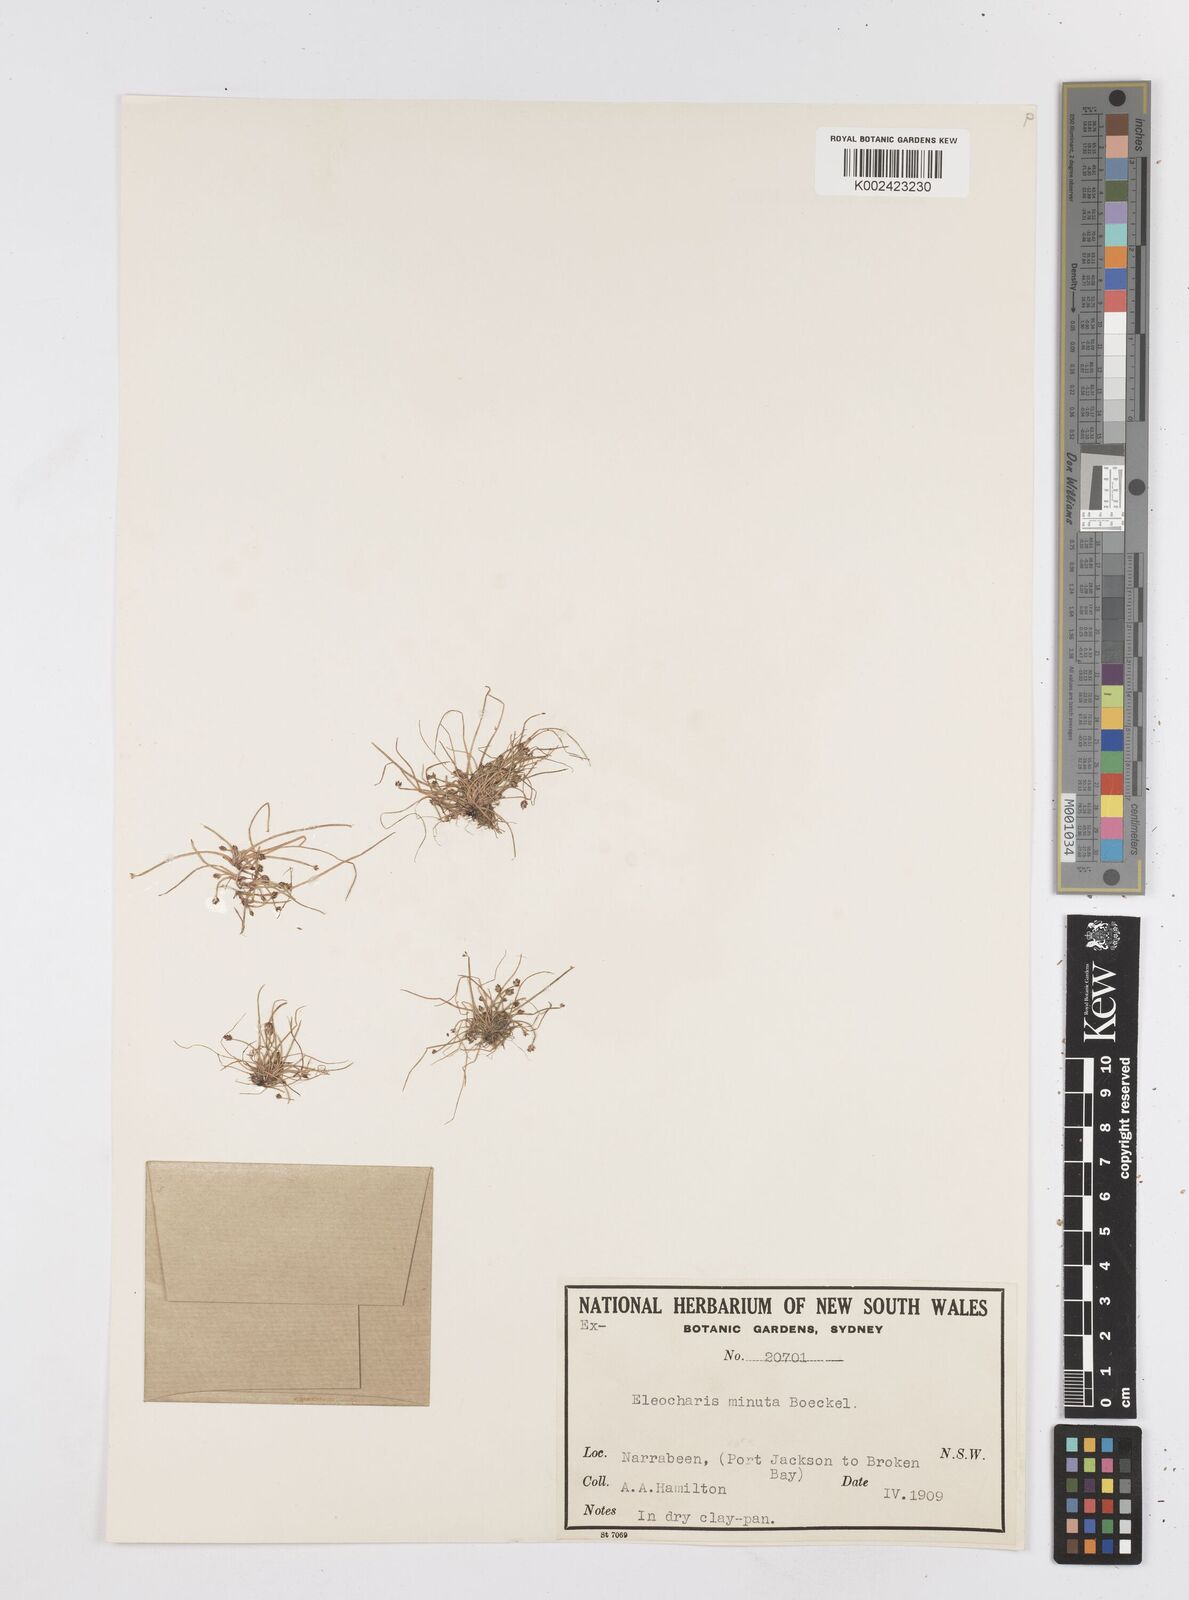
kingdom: Plantae
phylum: Tracheophyta
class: Liliopsida
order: Poales
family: Cyperaceae
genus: Eleocharis
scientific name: Eleocharis minuta
